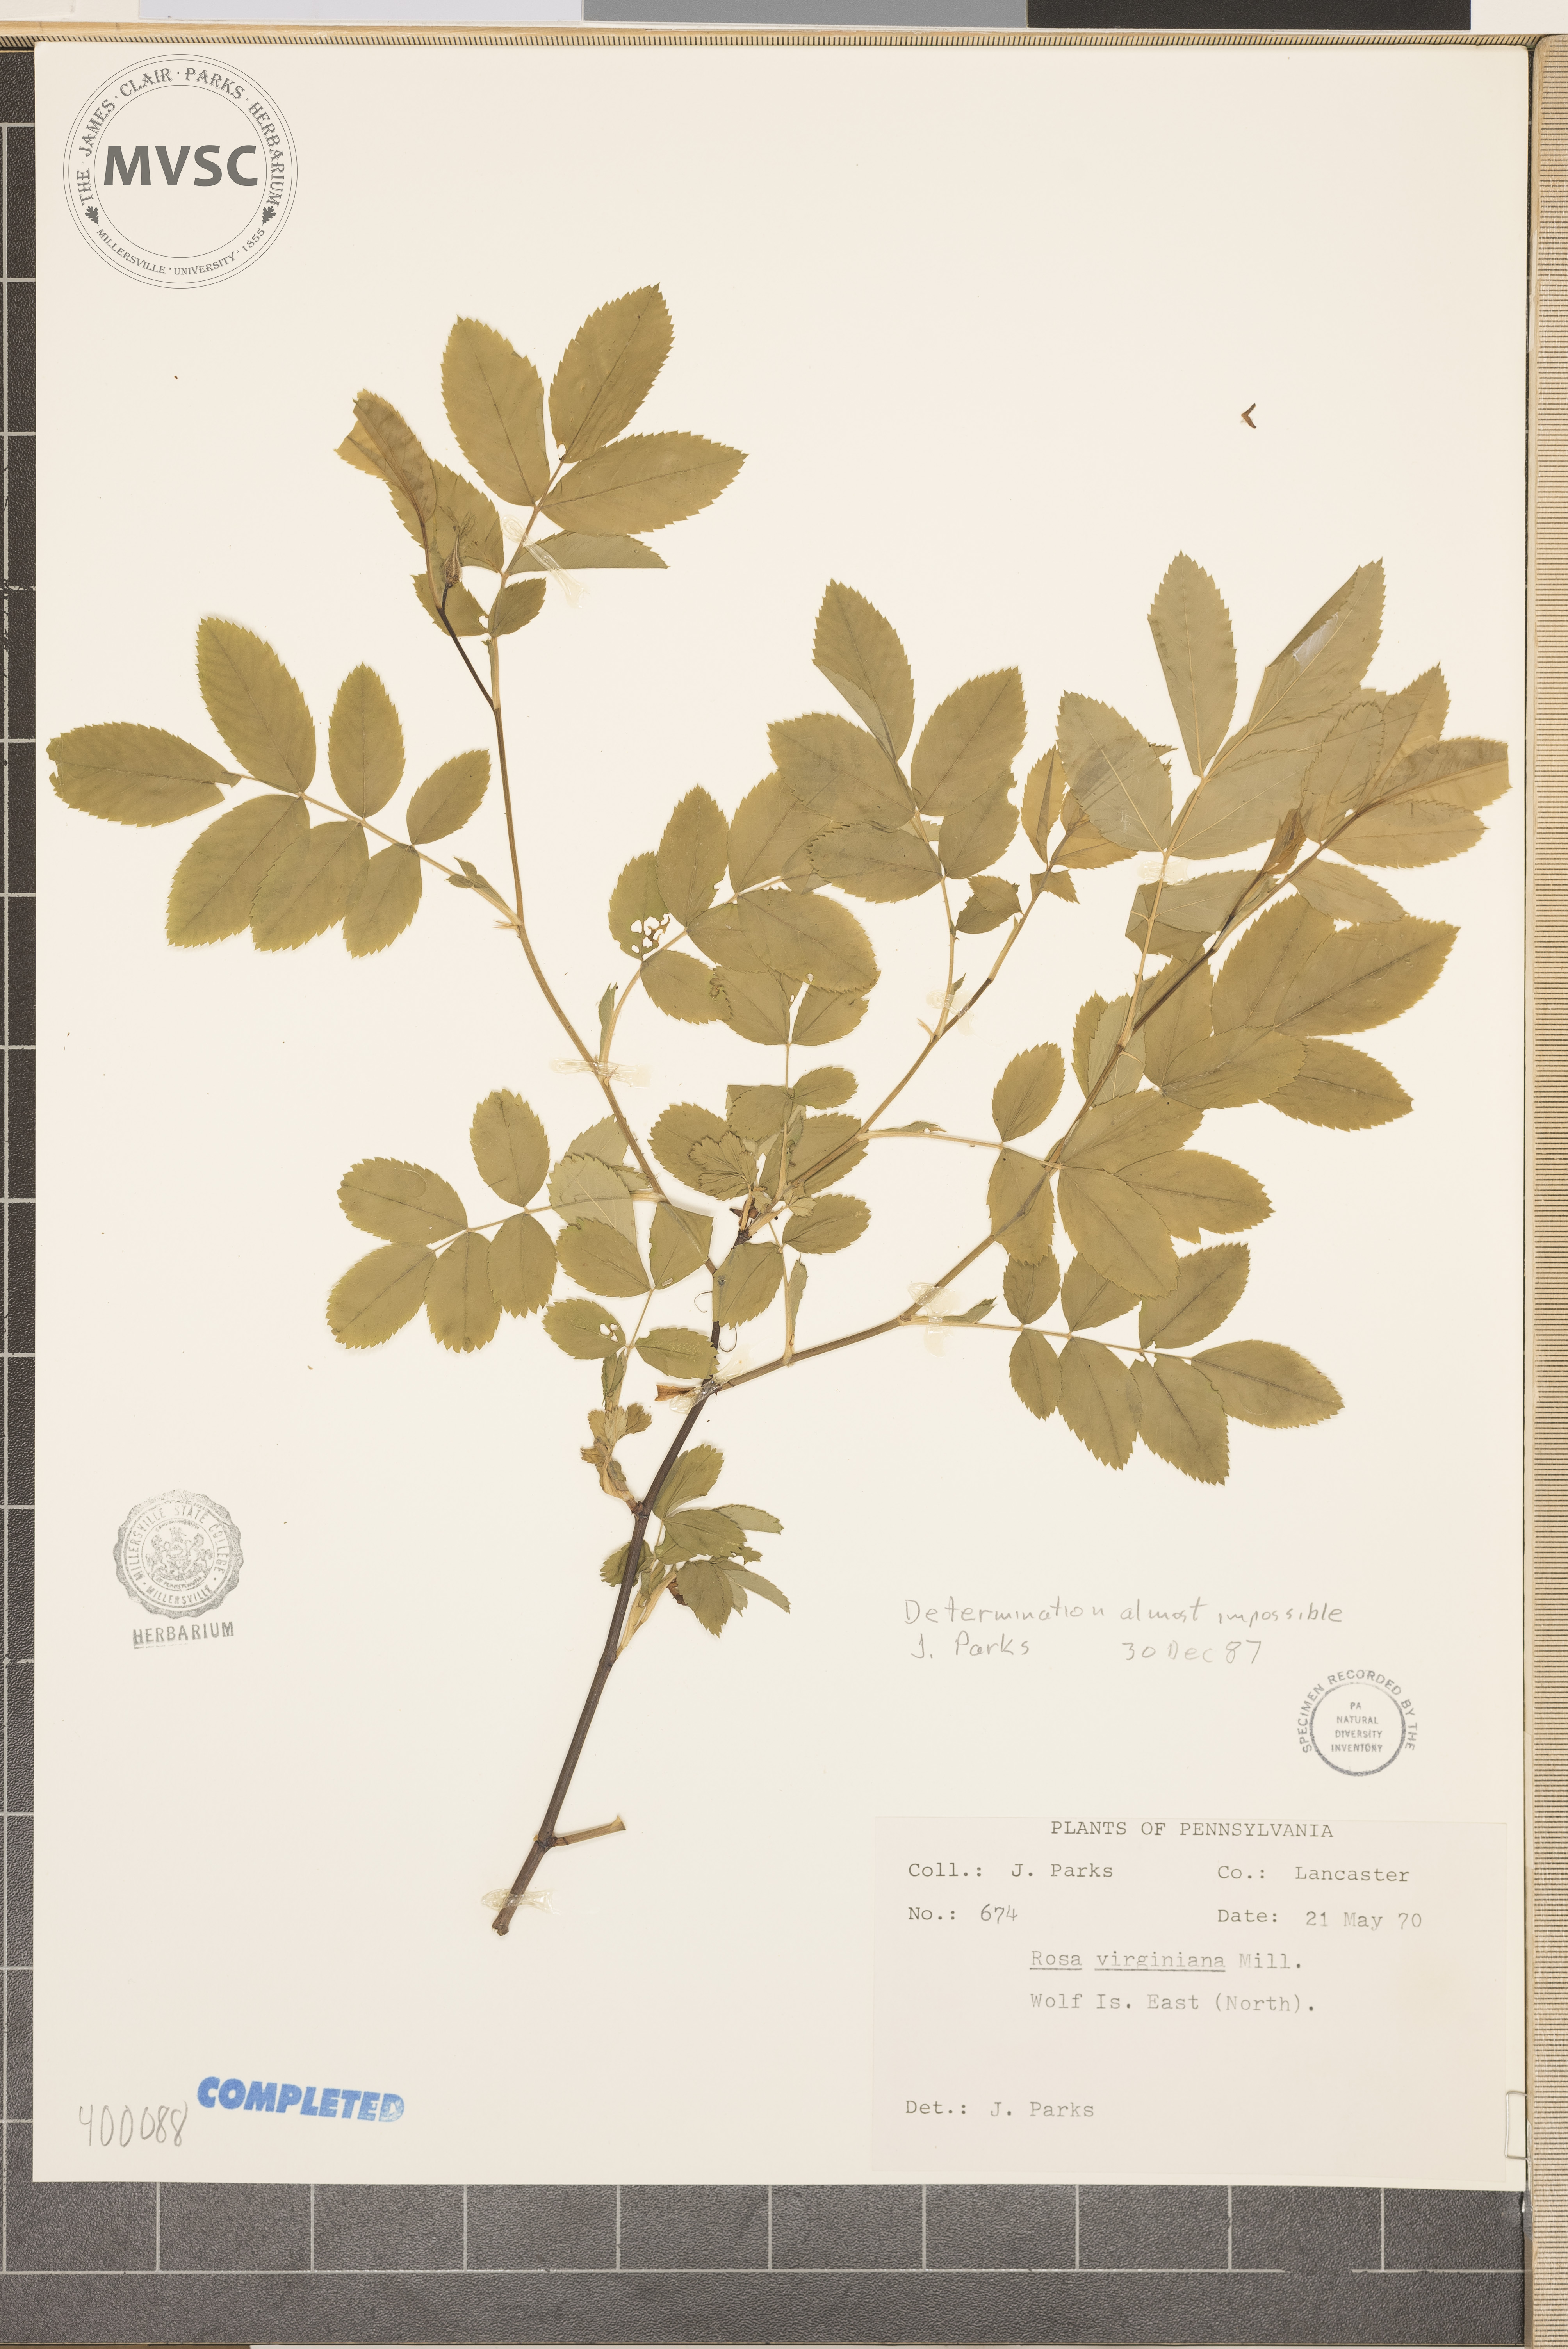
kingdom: Plantae
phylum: Tracheophyta
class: Magnoliopsida
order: Rosales
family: Rosaceae
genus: Rosa
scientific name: Rosa
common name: rose
